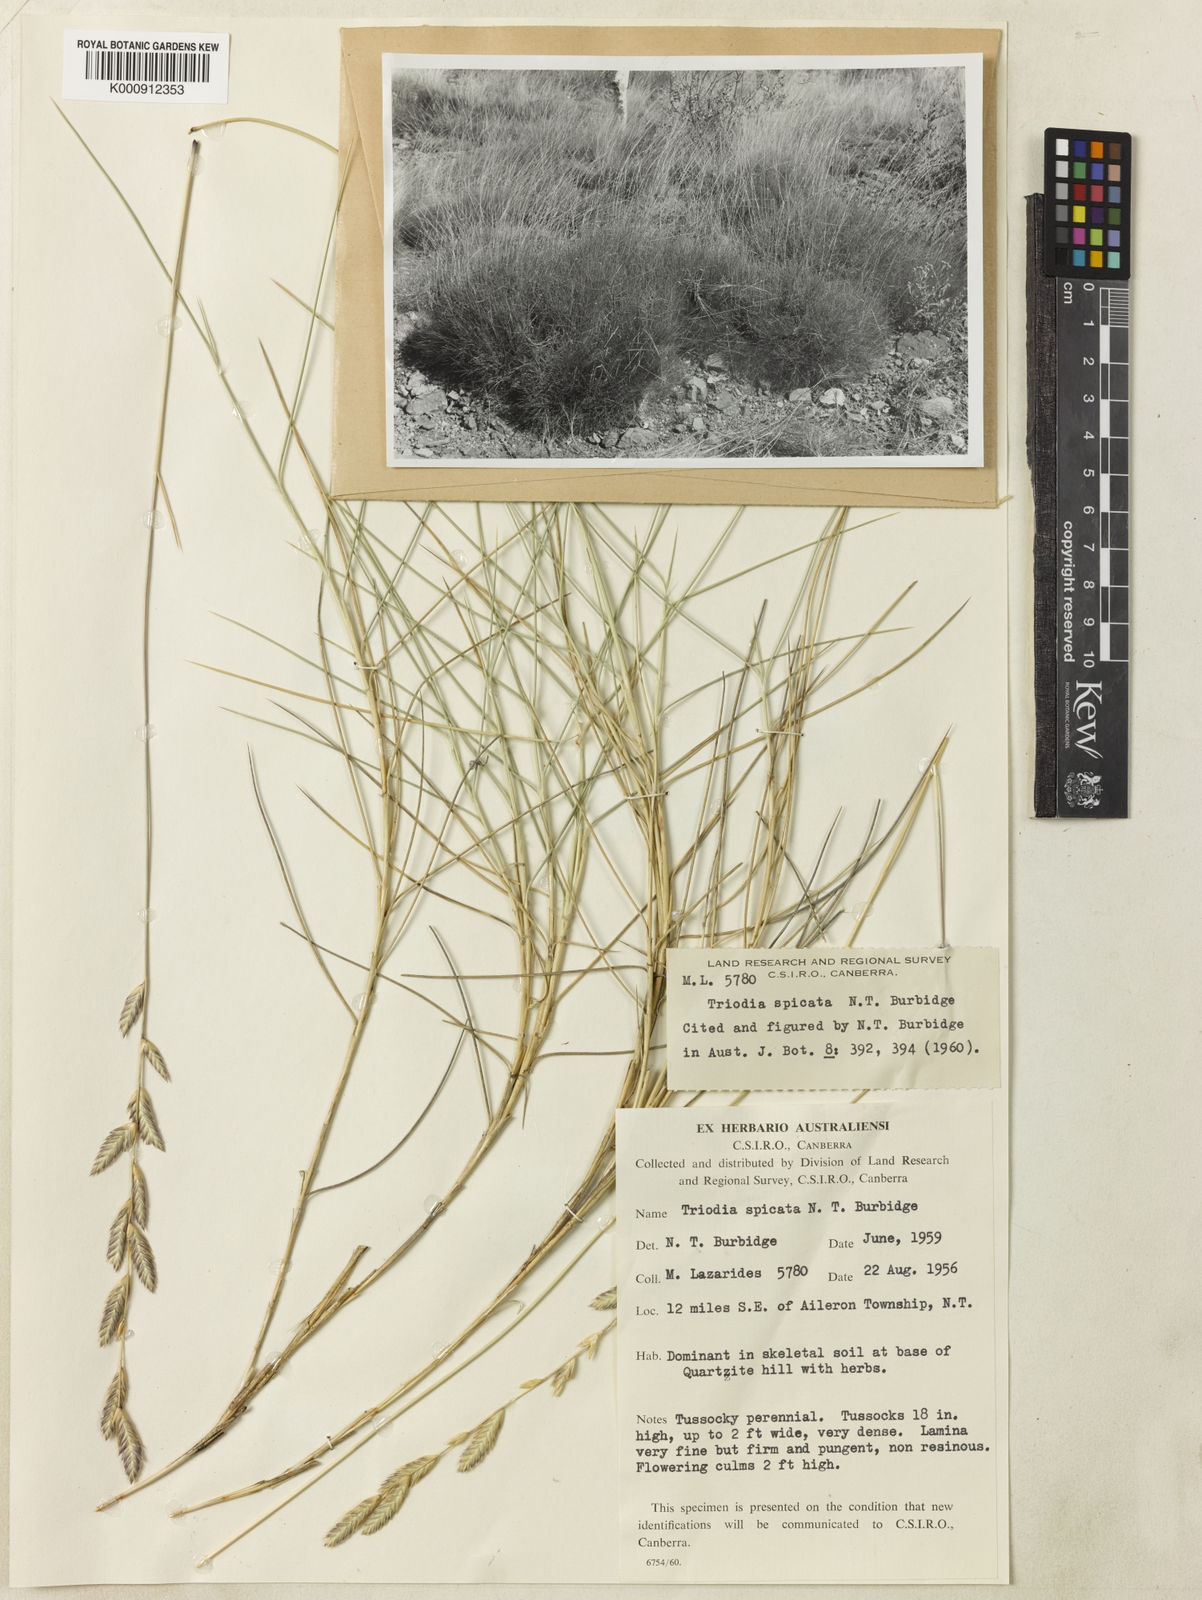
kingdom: Plantae
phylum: Tracheophyta
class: Liliopsida
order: Poales
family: Poaceae
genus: Triodia
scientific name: Triodia spicata
